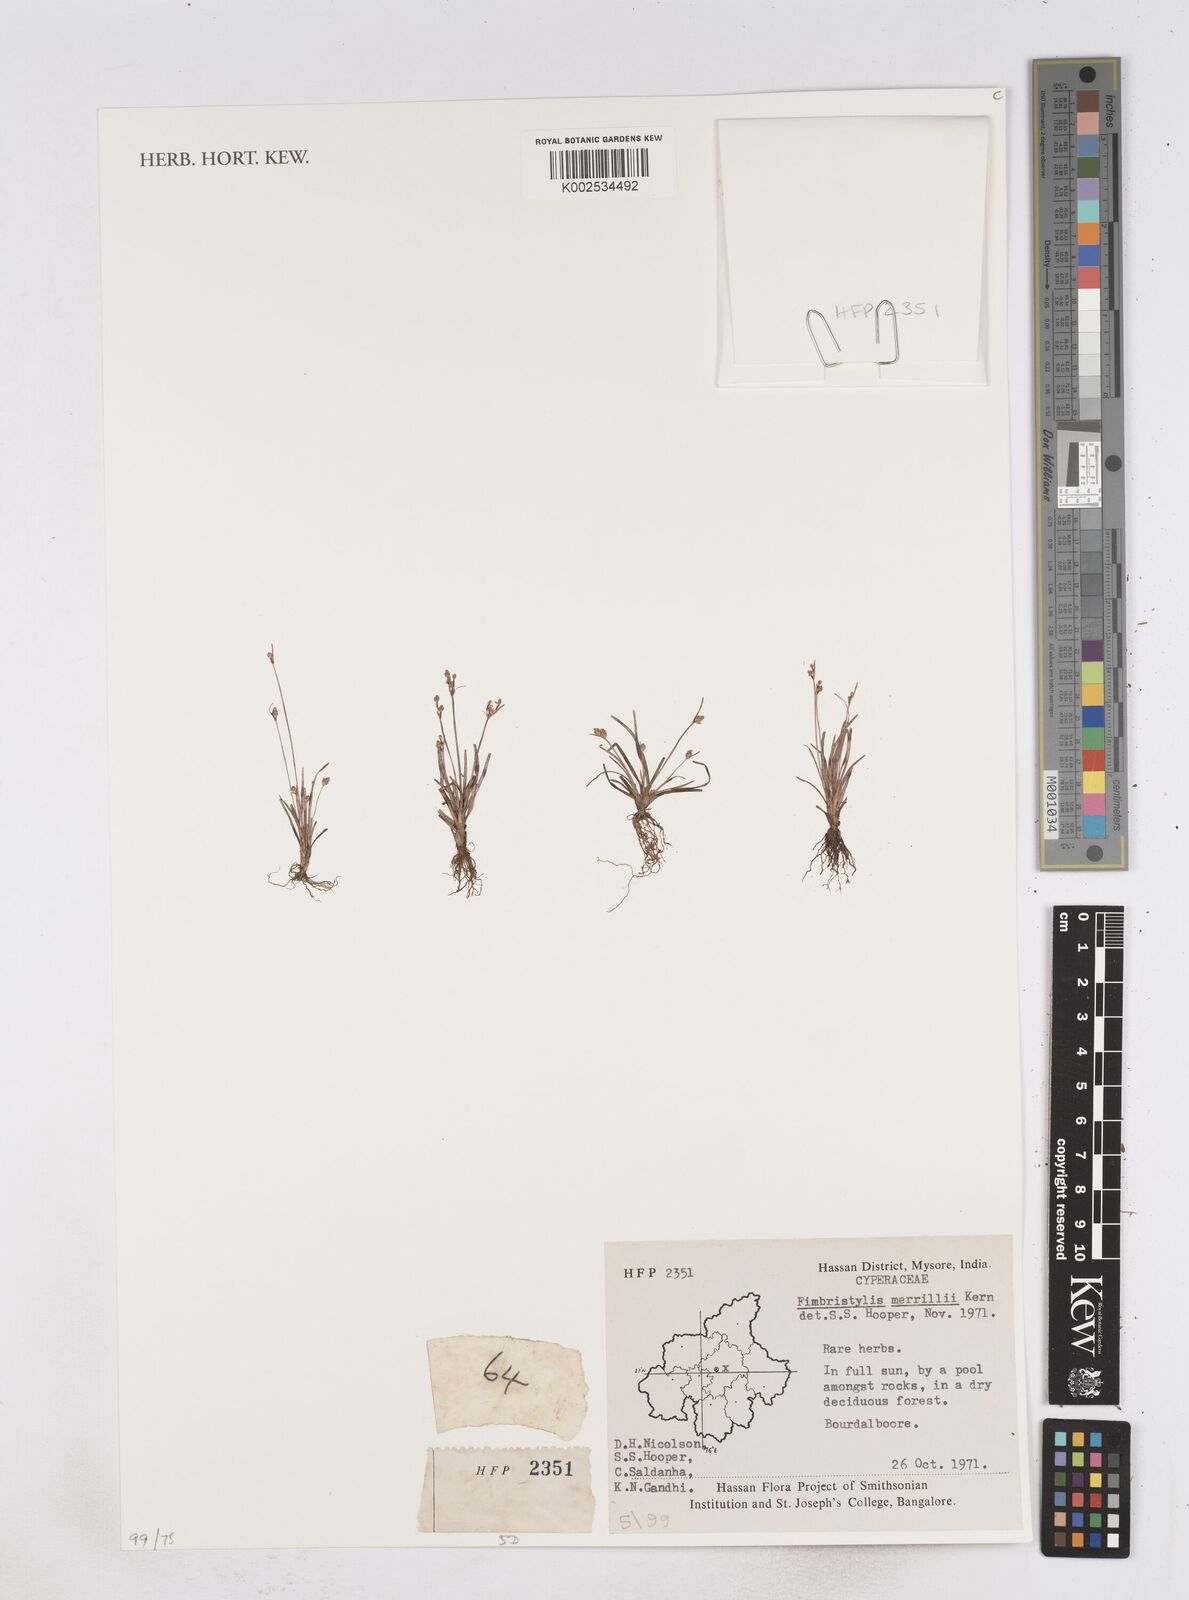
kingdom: Plantae
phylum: Tracheophyta
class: Liliopsida
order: Poales
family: Cyperaceae
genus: Fimbristylis
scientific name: Fimbristylis merrillii
